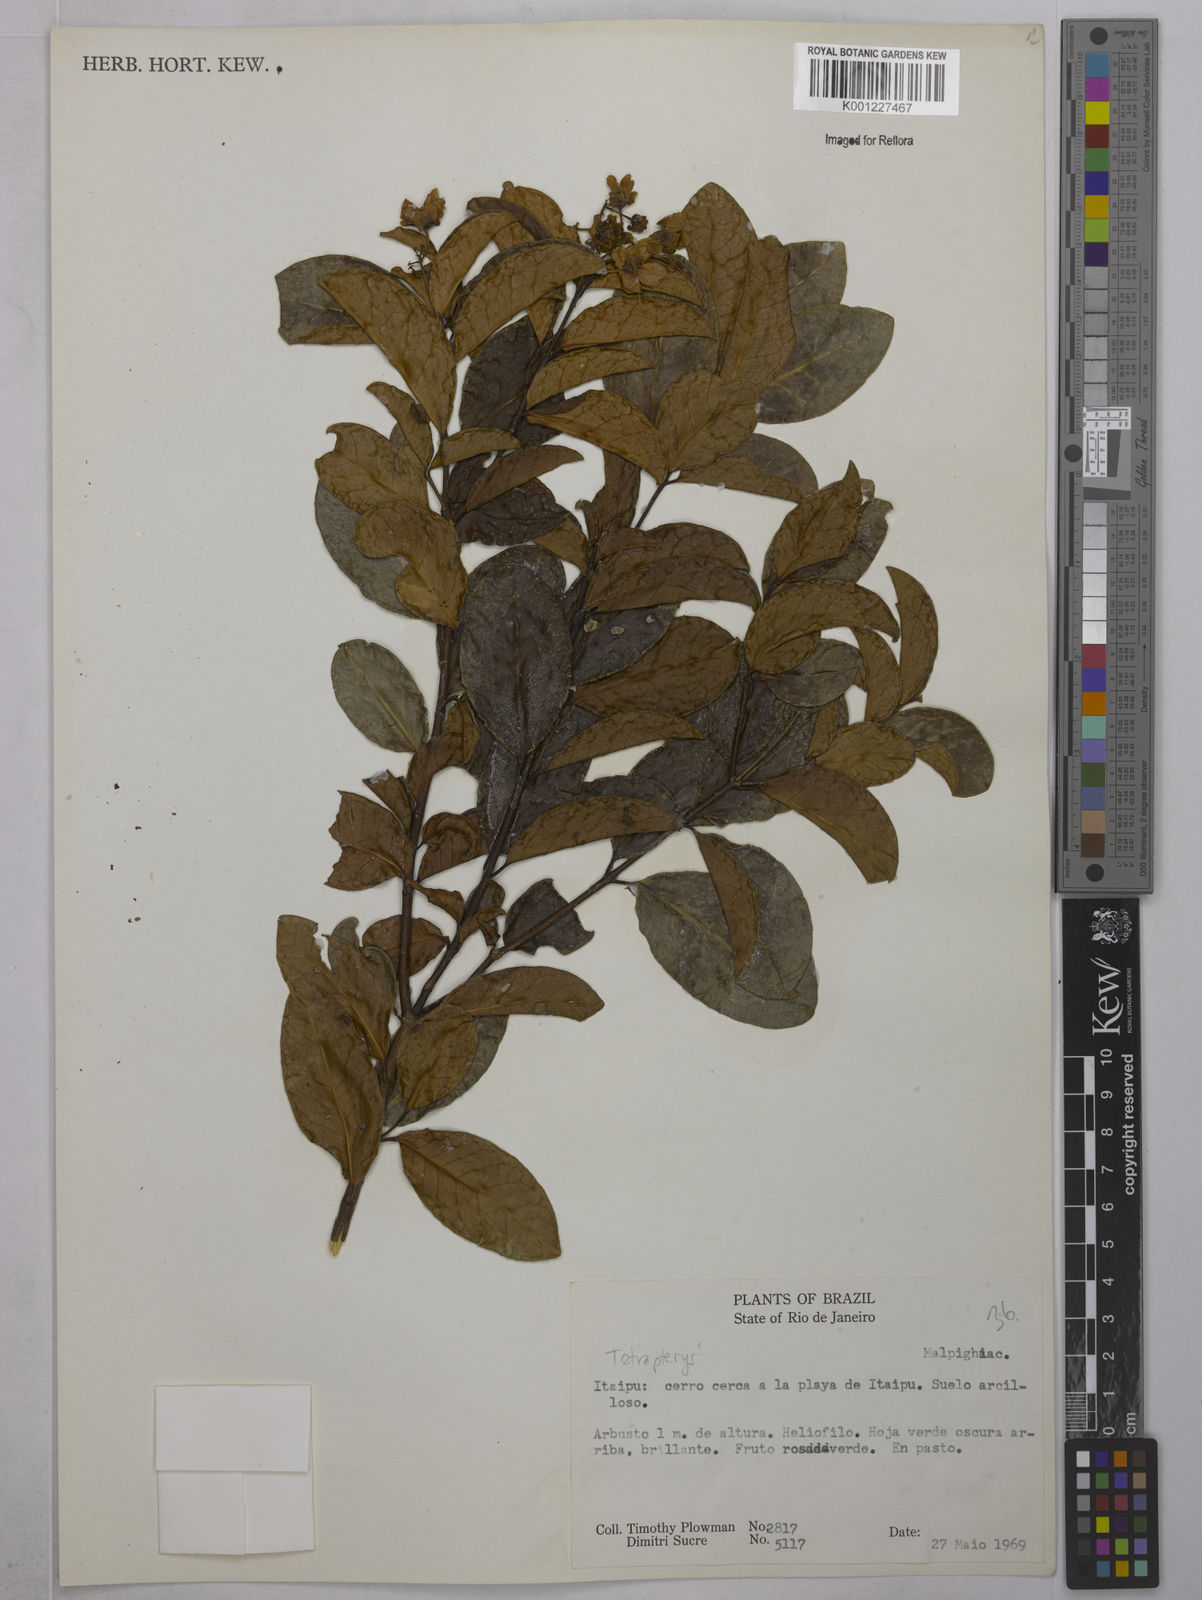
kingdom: Plantae
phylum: Tracheophyta
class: Magnoliopsida
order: Malpighiales
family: Malpighiaceae
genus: Tetrapterys
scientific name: Tetrapterys
